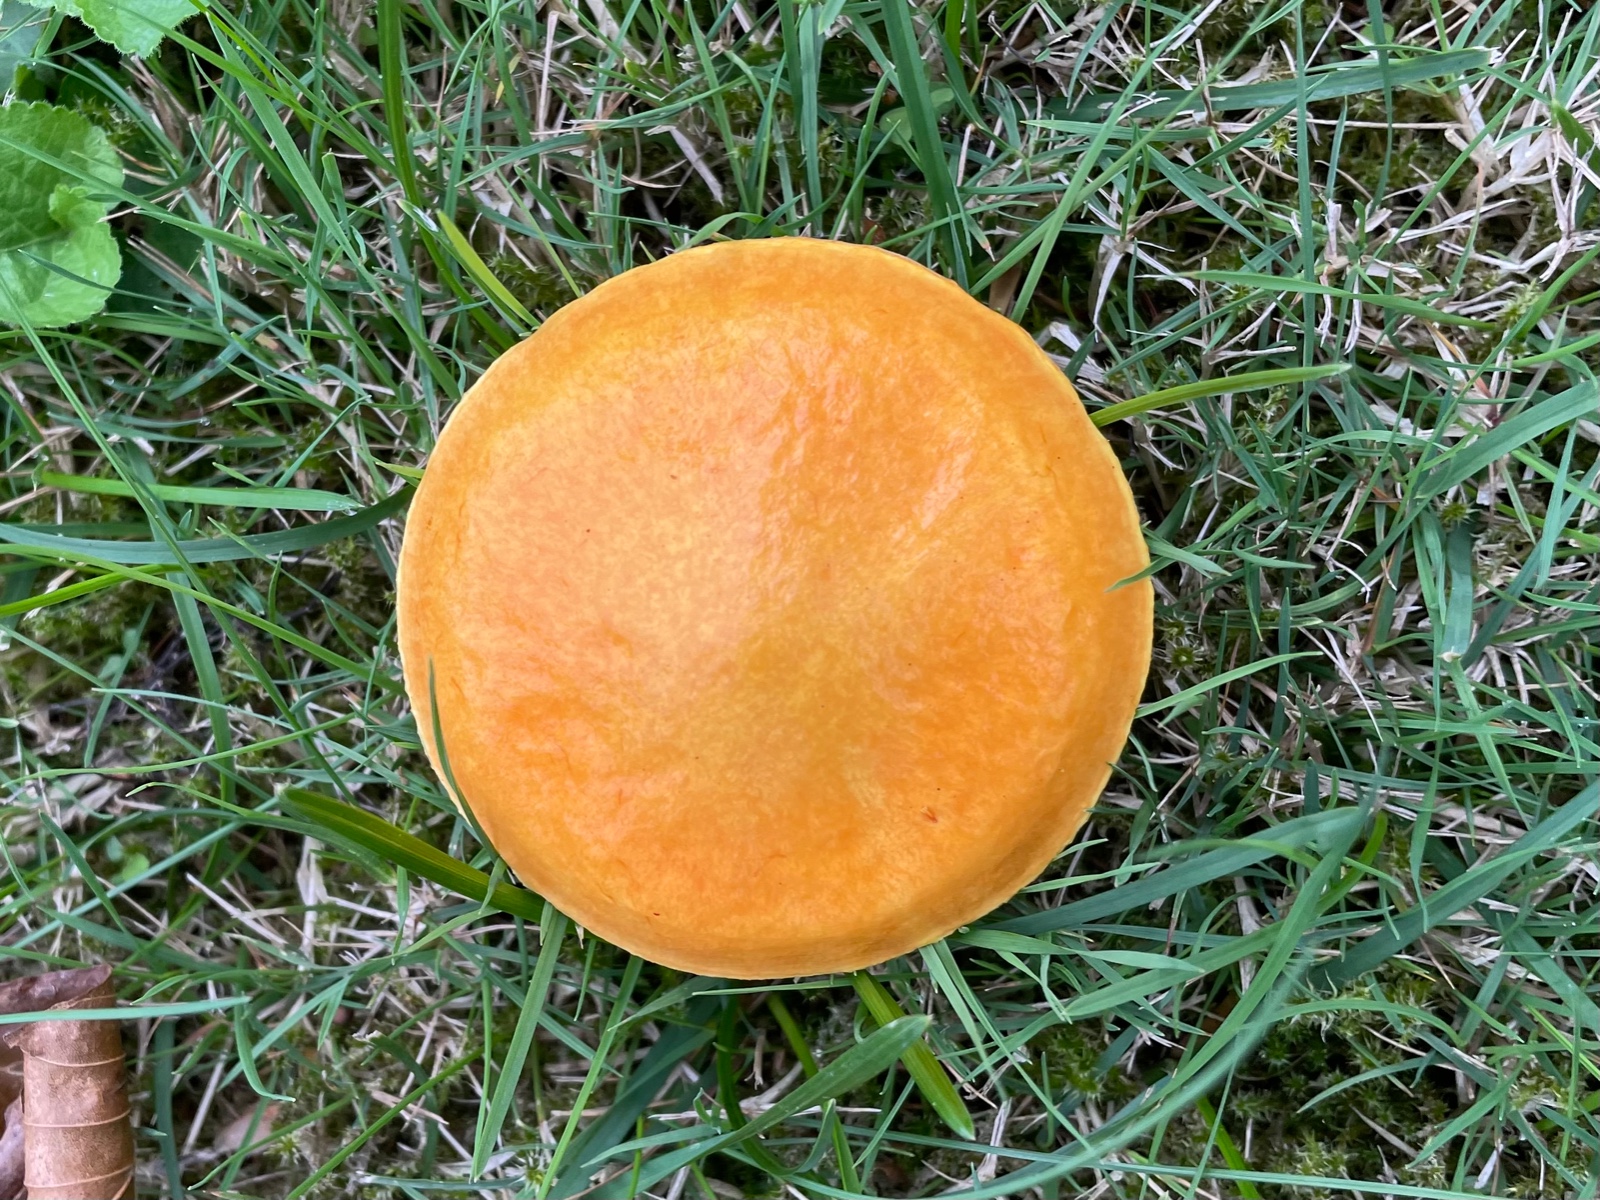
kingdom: Fungi
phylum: Basidiomycota
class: Agaricomycetes
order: Boletales
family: Suillaceae
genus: Suillus
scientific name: Suillus grevillei
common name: lærke-slimrørhat
